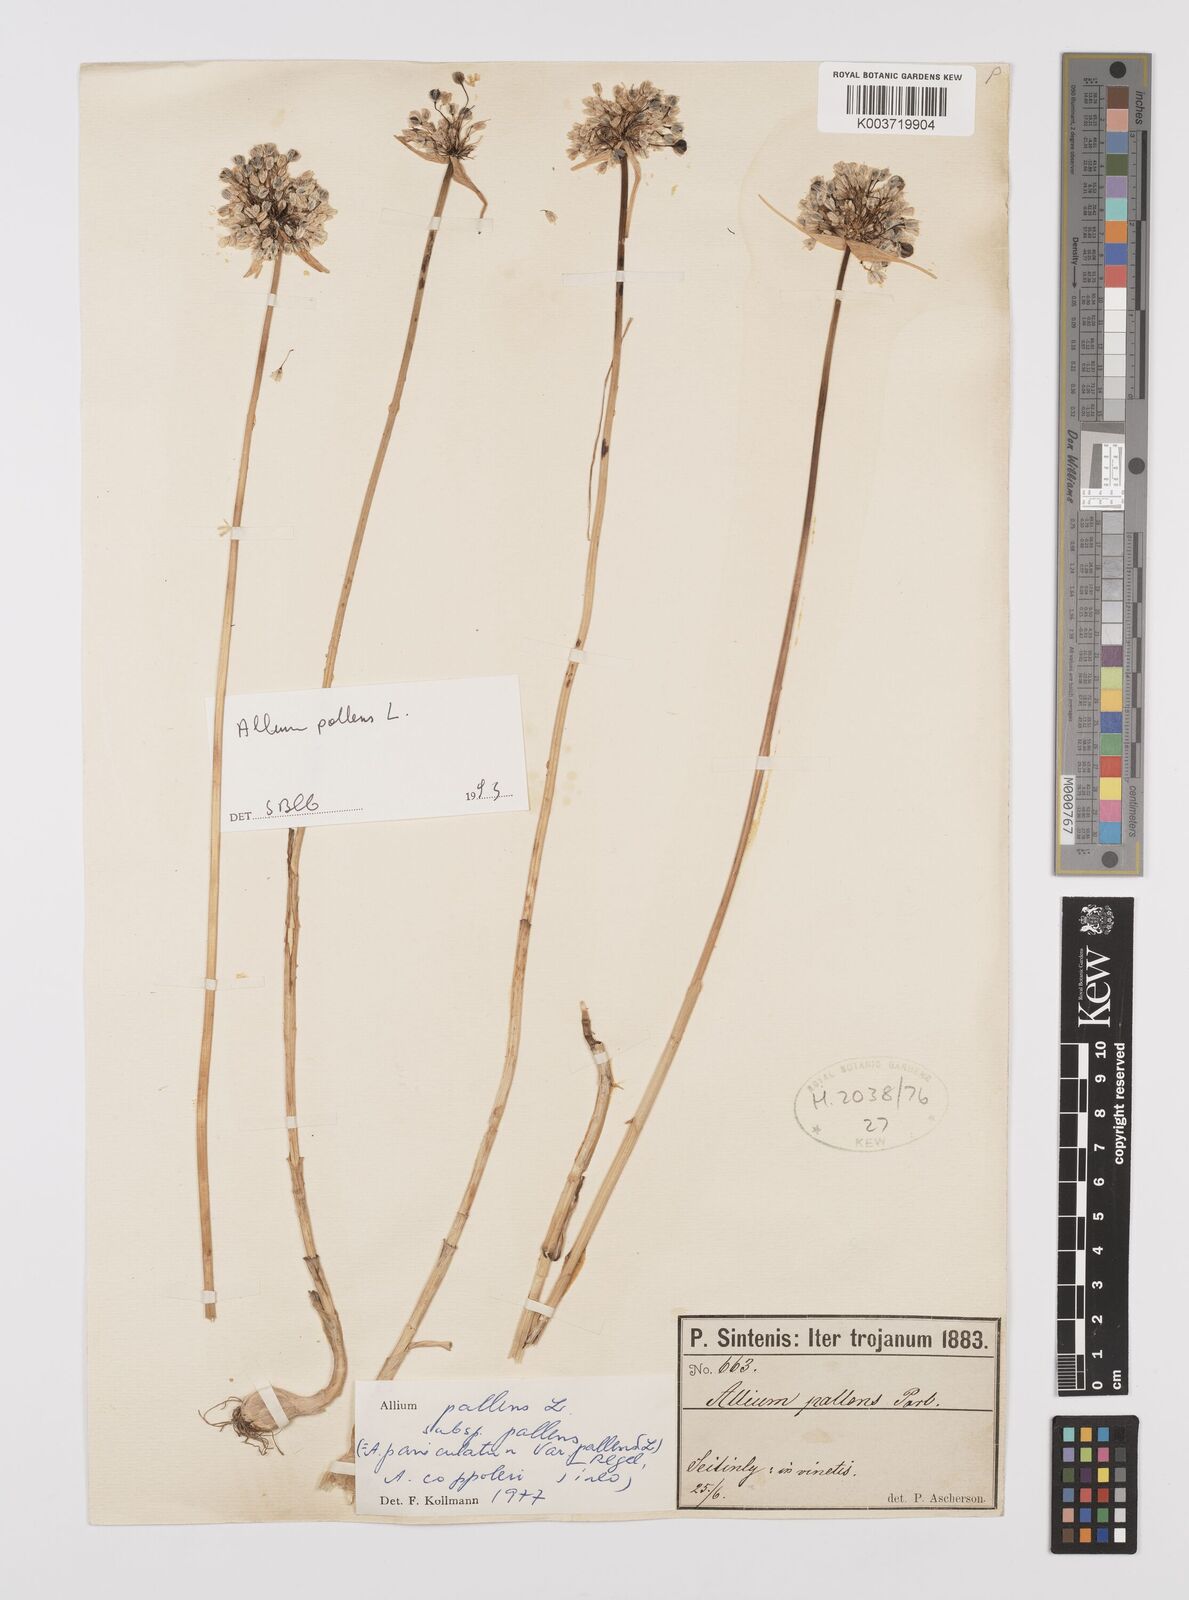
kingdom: Plantae
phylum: Tracheophyta
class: Liliopsida
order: Asparagales
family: Amaryllidaceae
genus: Allium
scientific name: Allium pallens
